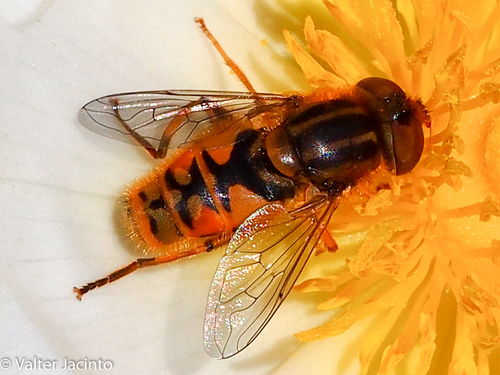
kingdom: Animalia
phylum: Arthropoda
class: Insecta
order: Diptera
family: Syrphidae
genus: Parhelophilus
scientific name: Parhelophilus versicolor
